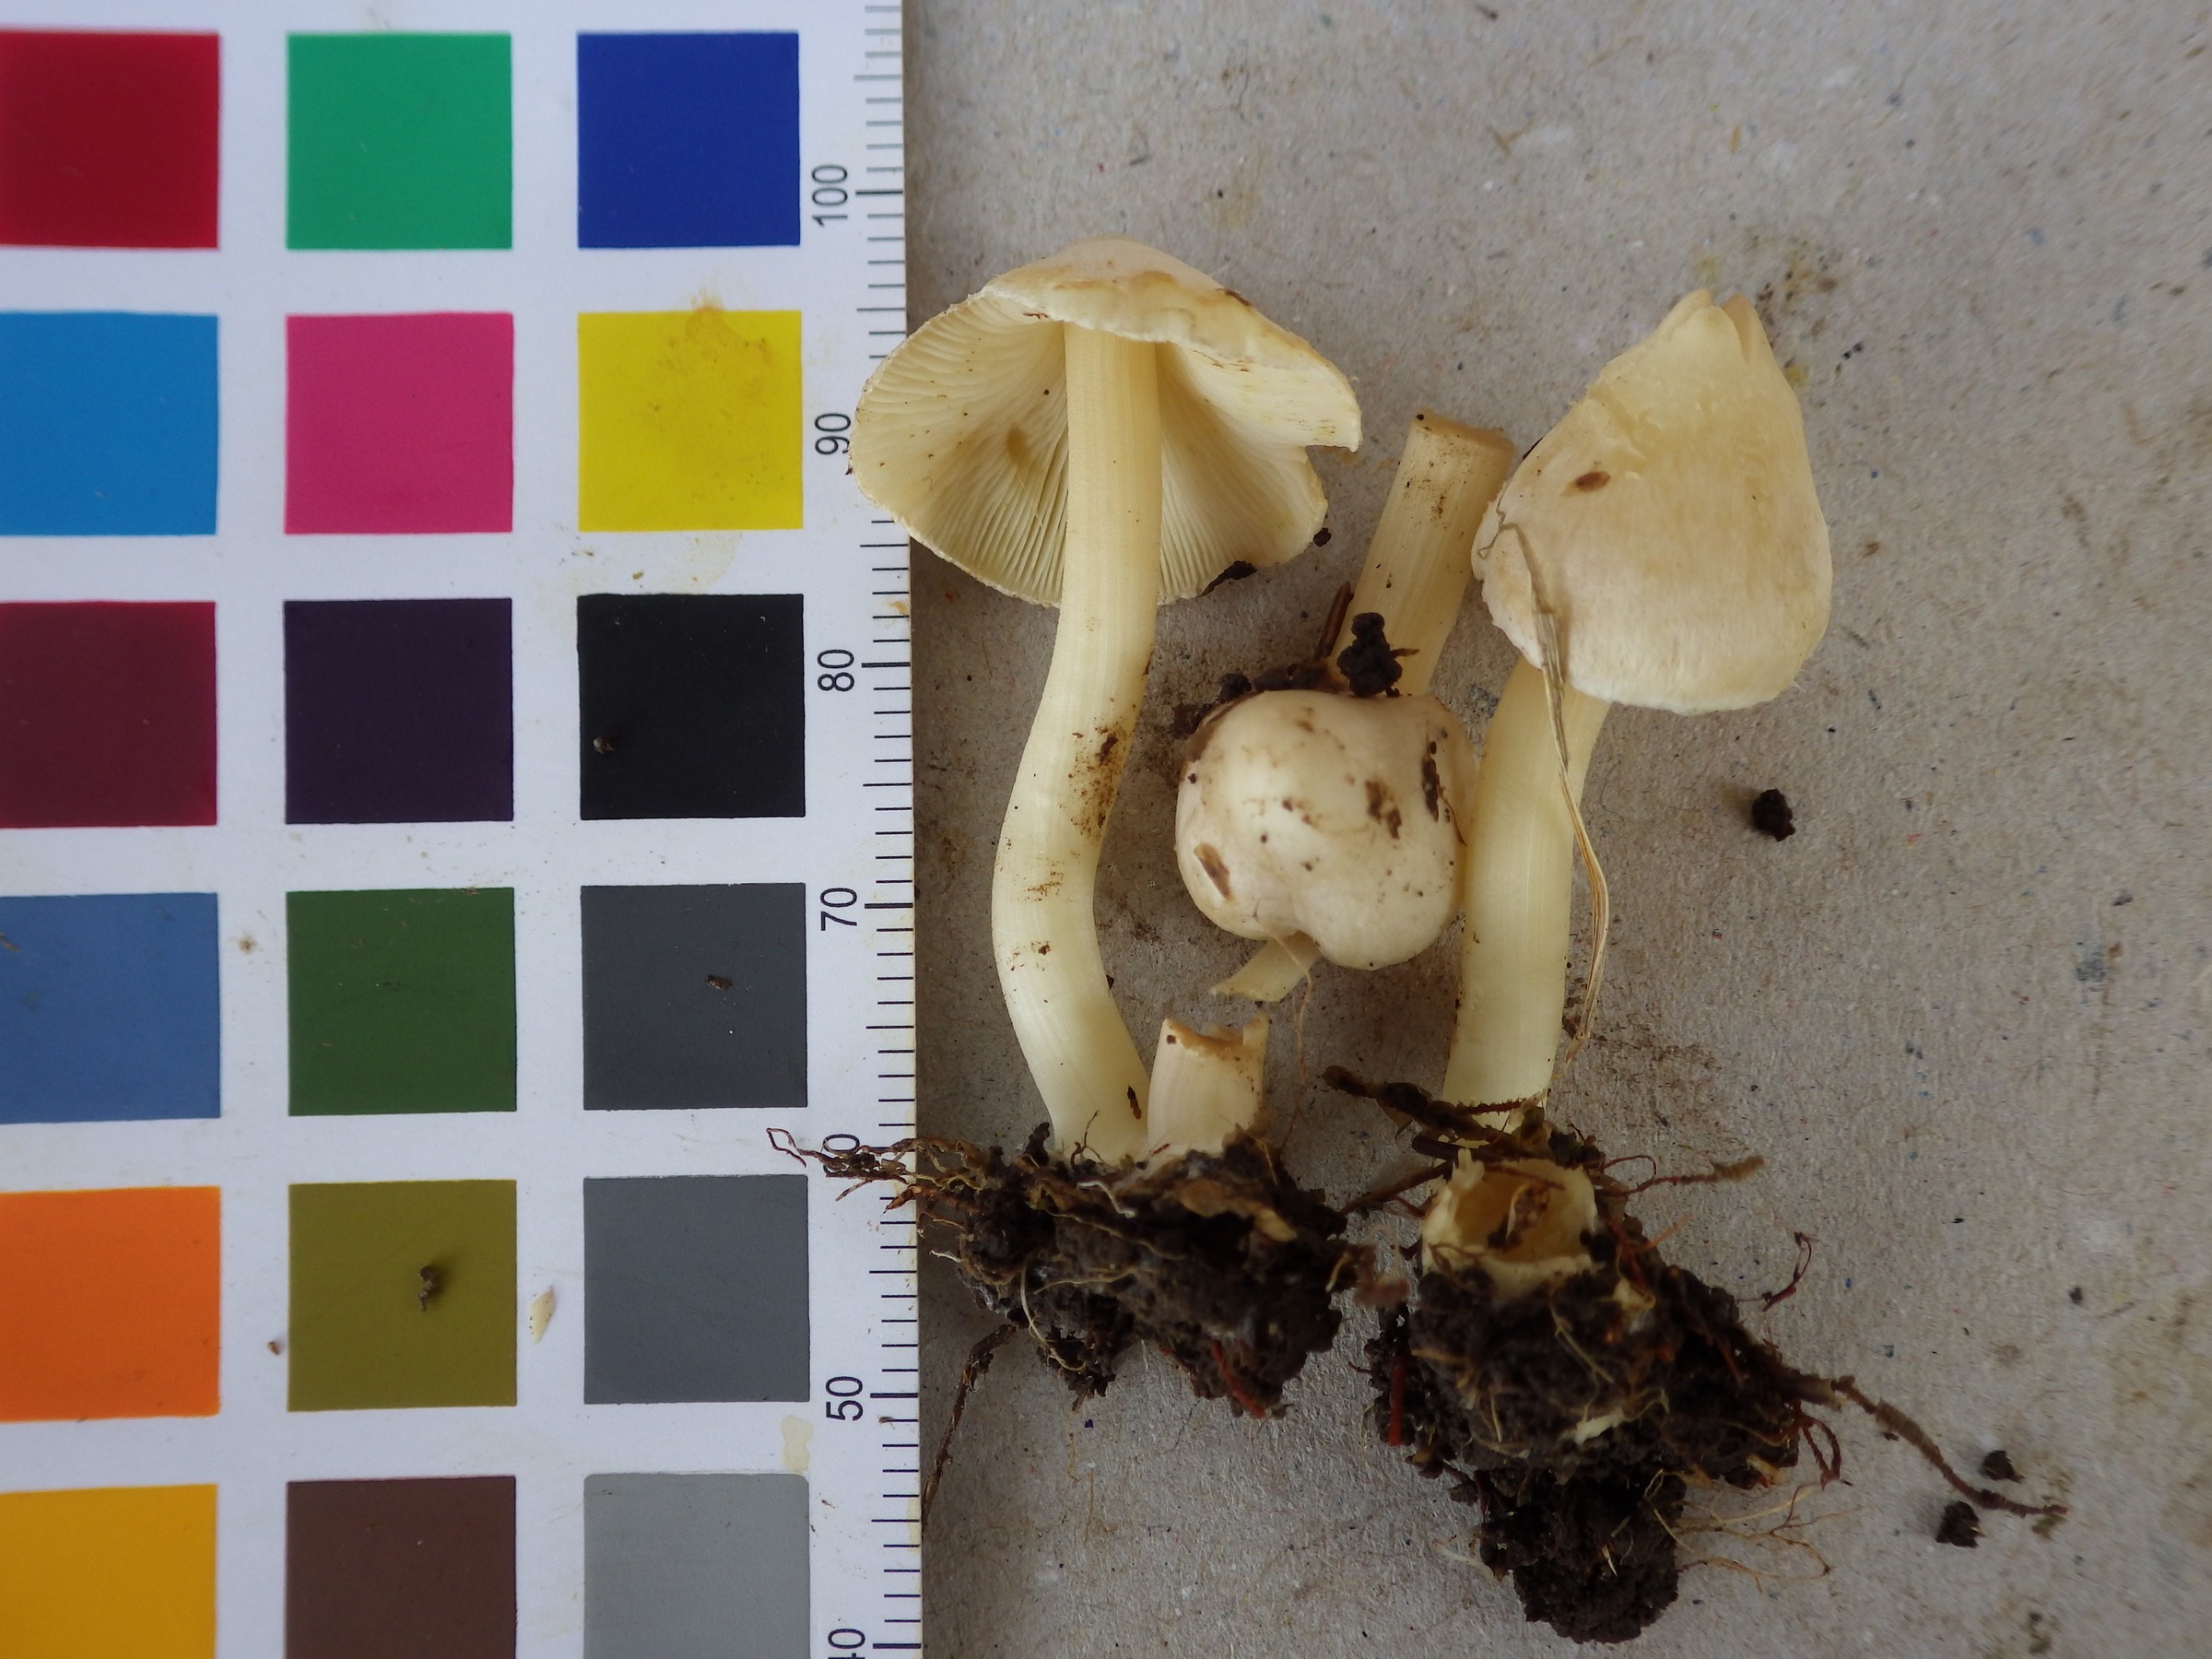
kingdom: Fungi
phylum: Basidiomycota
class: Agaricomycetes
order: Agaricales
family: Inocybaceae
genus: Inocybe
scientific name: Inocybe umbratica
